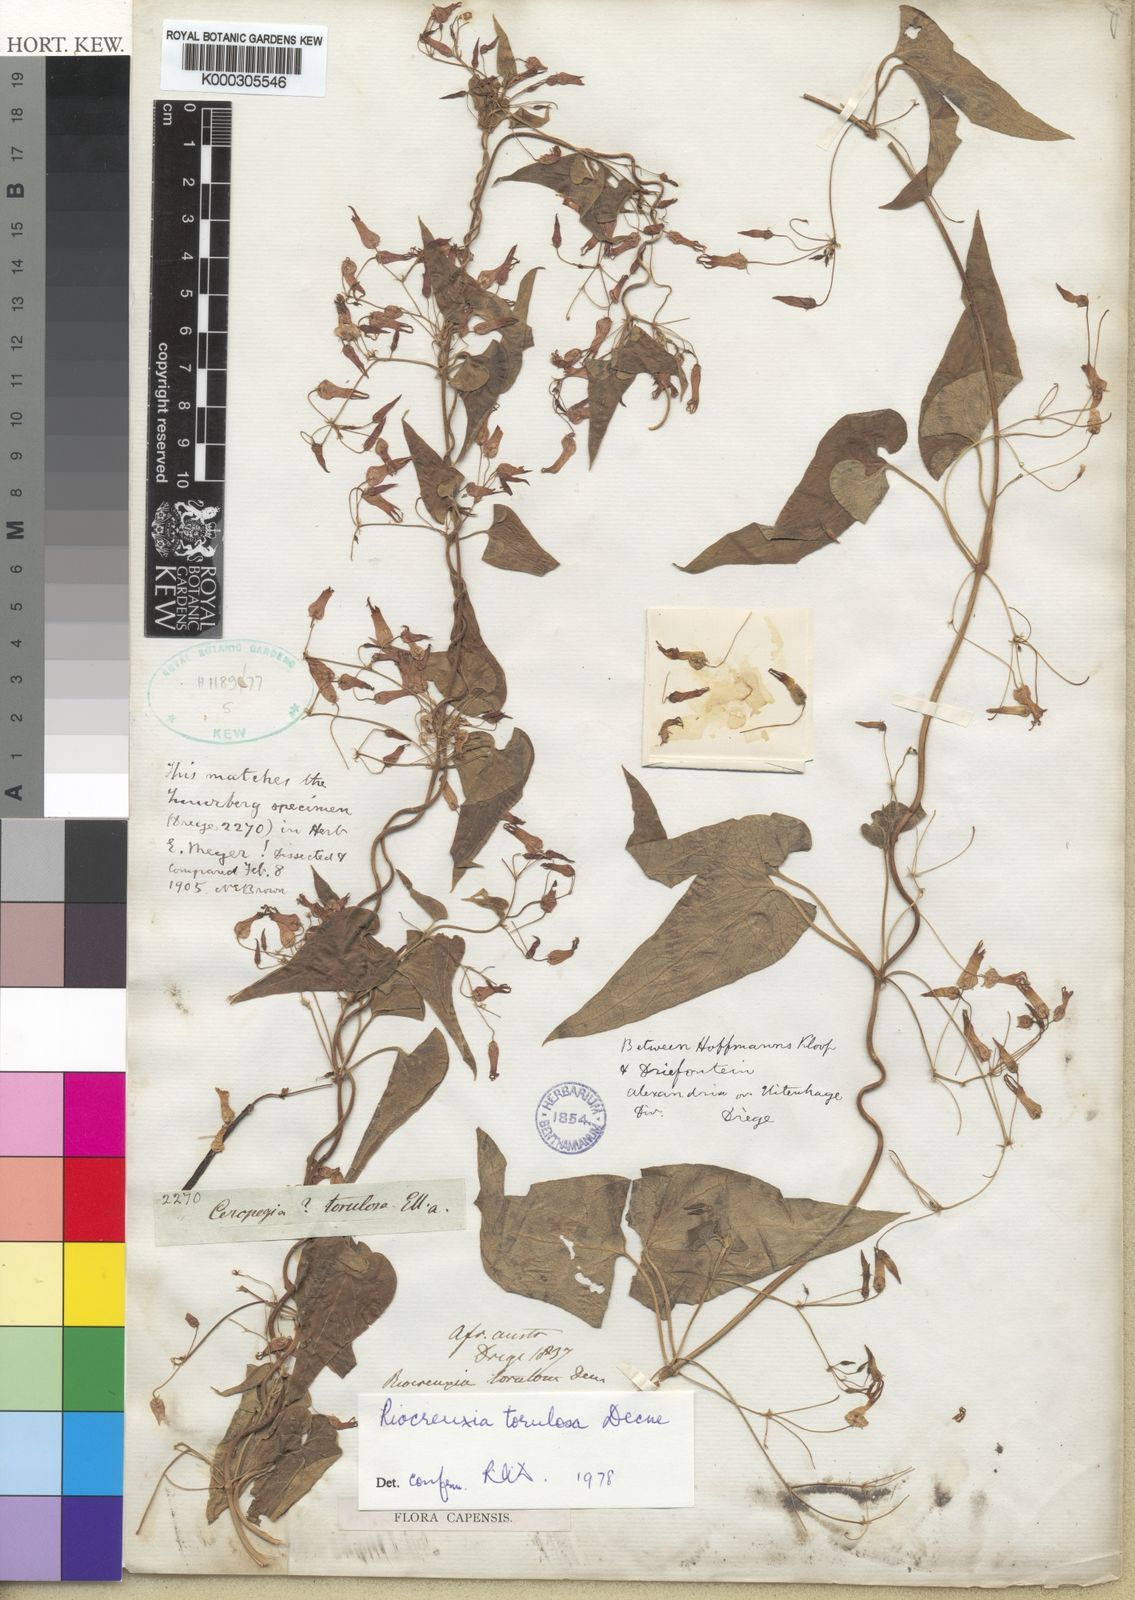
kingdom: Plantae
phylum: Tracheophyta
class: Magnoliopsida
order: Gentianales
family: Apocynaceae
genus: Riocreuxia
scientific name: Riocreuxia torulosa
